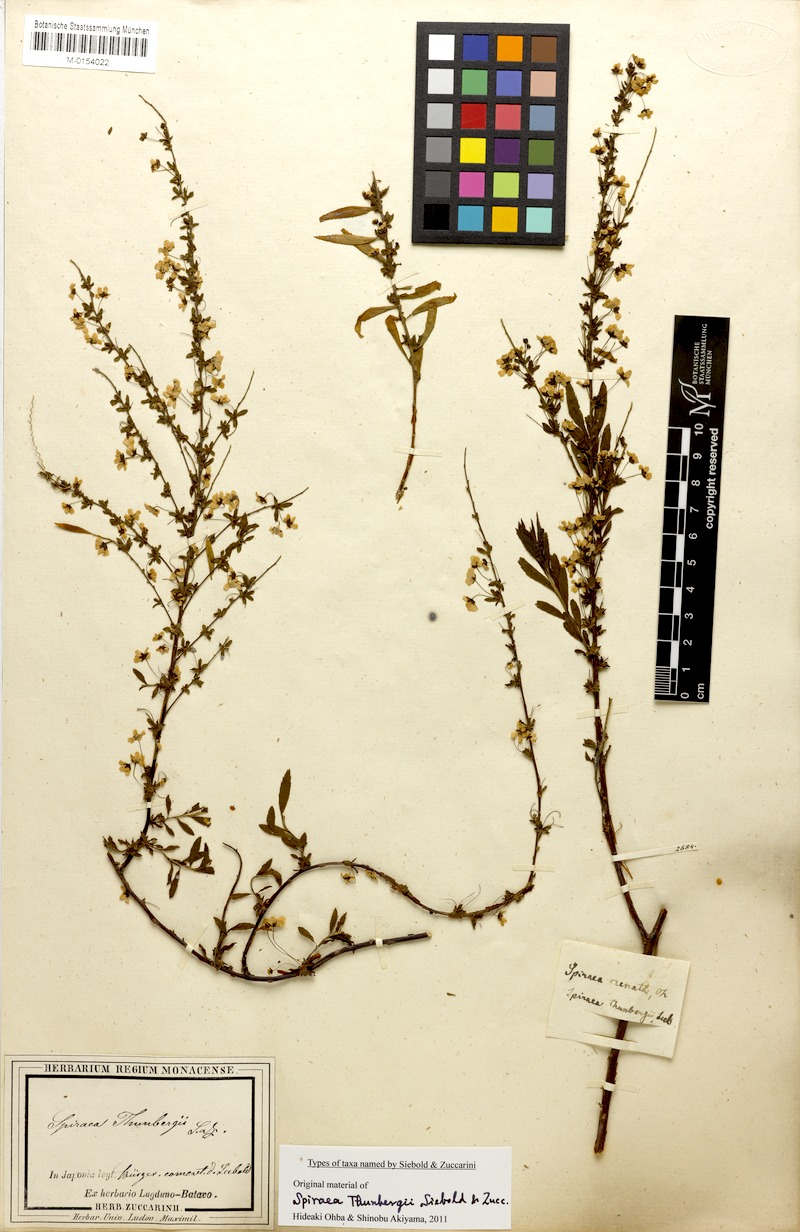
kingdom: Plantae
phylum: Tracheophyta
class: Magnoliopsida
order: Rosales
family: Rosaceae
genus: Spiraea
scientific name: Spiraea thunbergii
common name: Thunberg's meadowsweet
